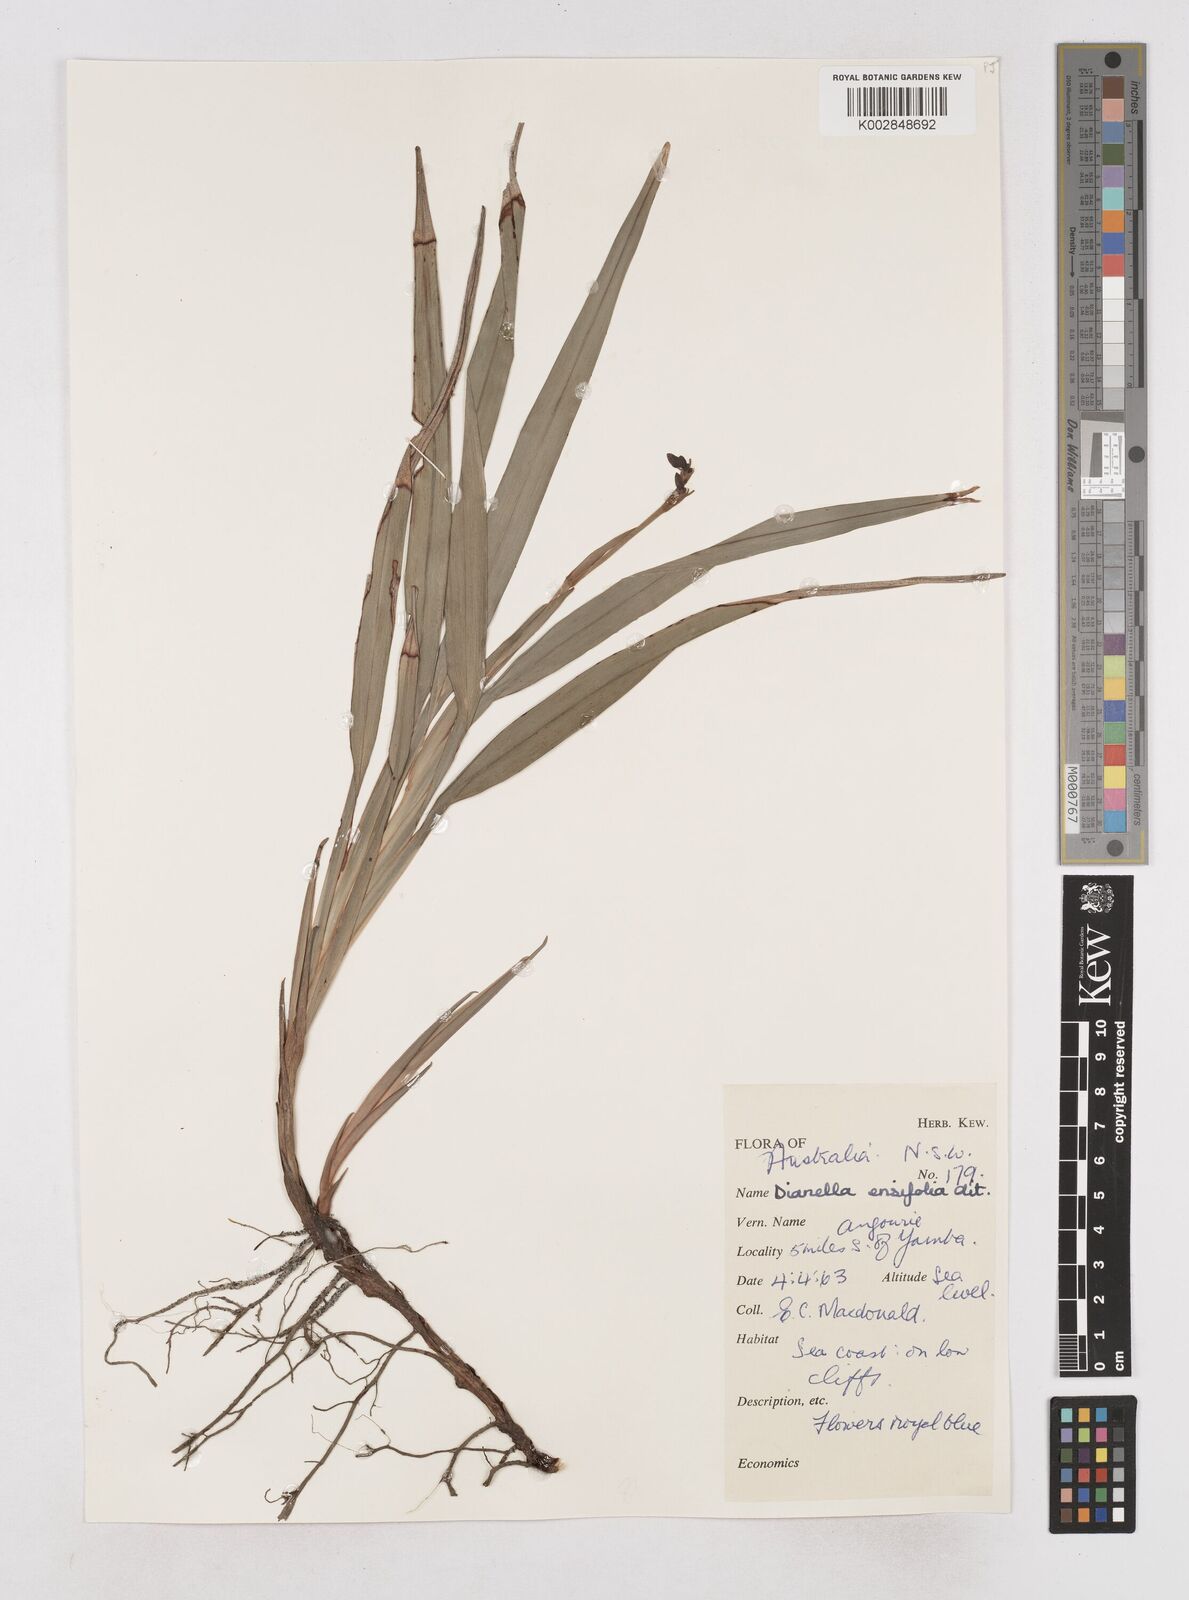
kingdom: Plantae
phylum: Tracheophyta
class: Liliopsida
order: Asparagales
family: Asphodelaceae
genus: Dianella
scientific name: Dianella ensifolia
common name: New zealand lilyplant
